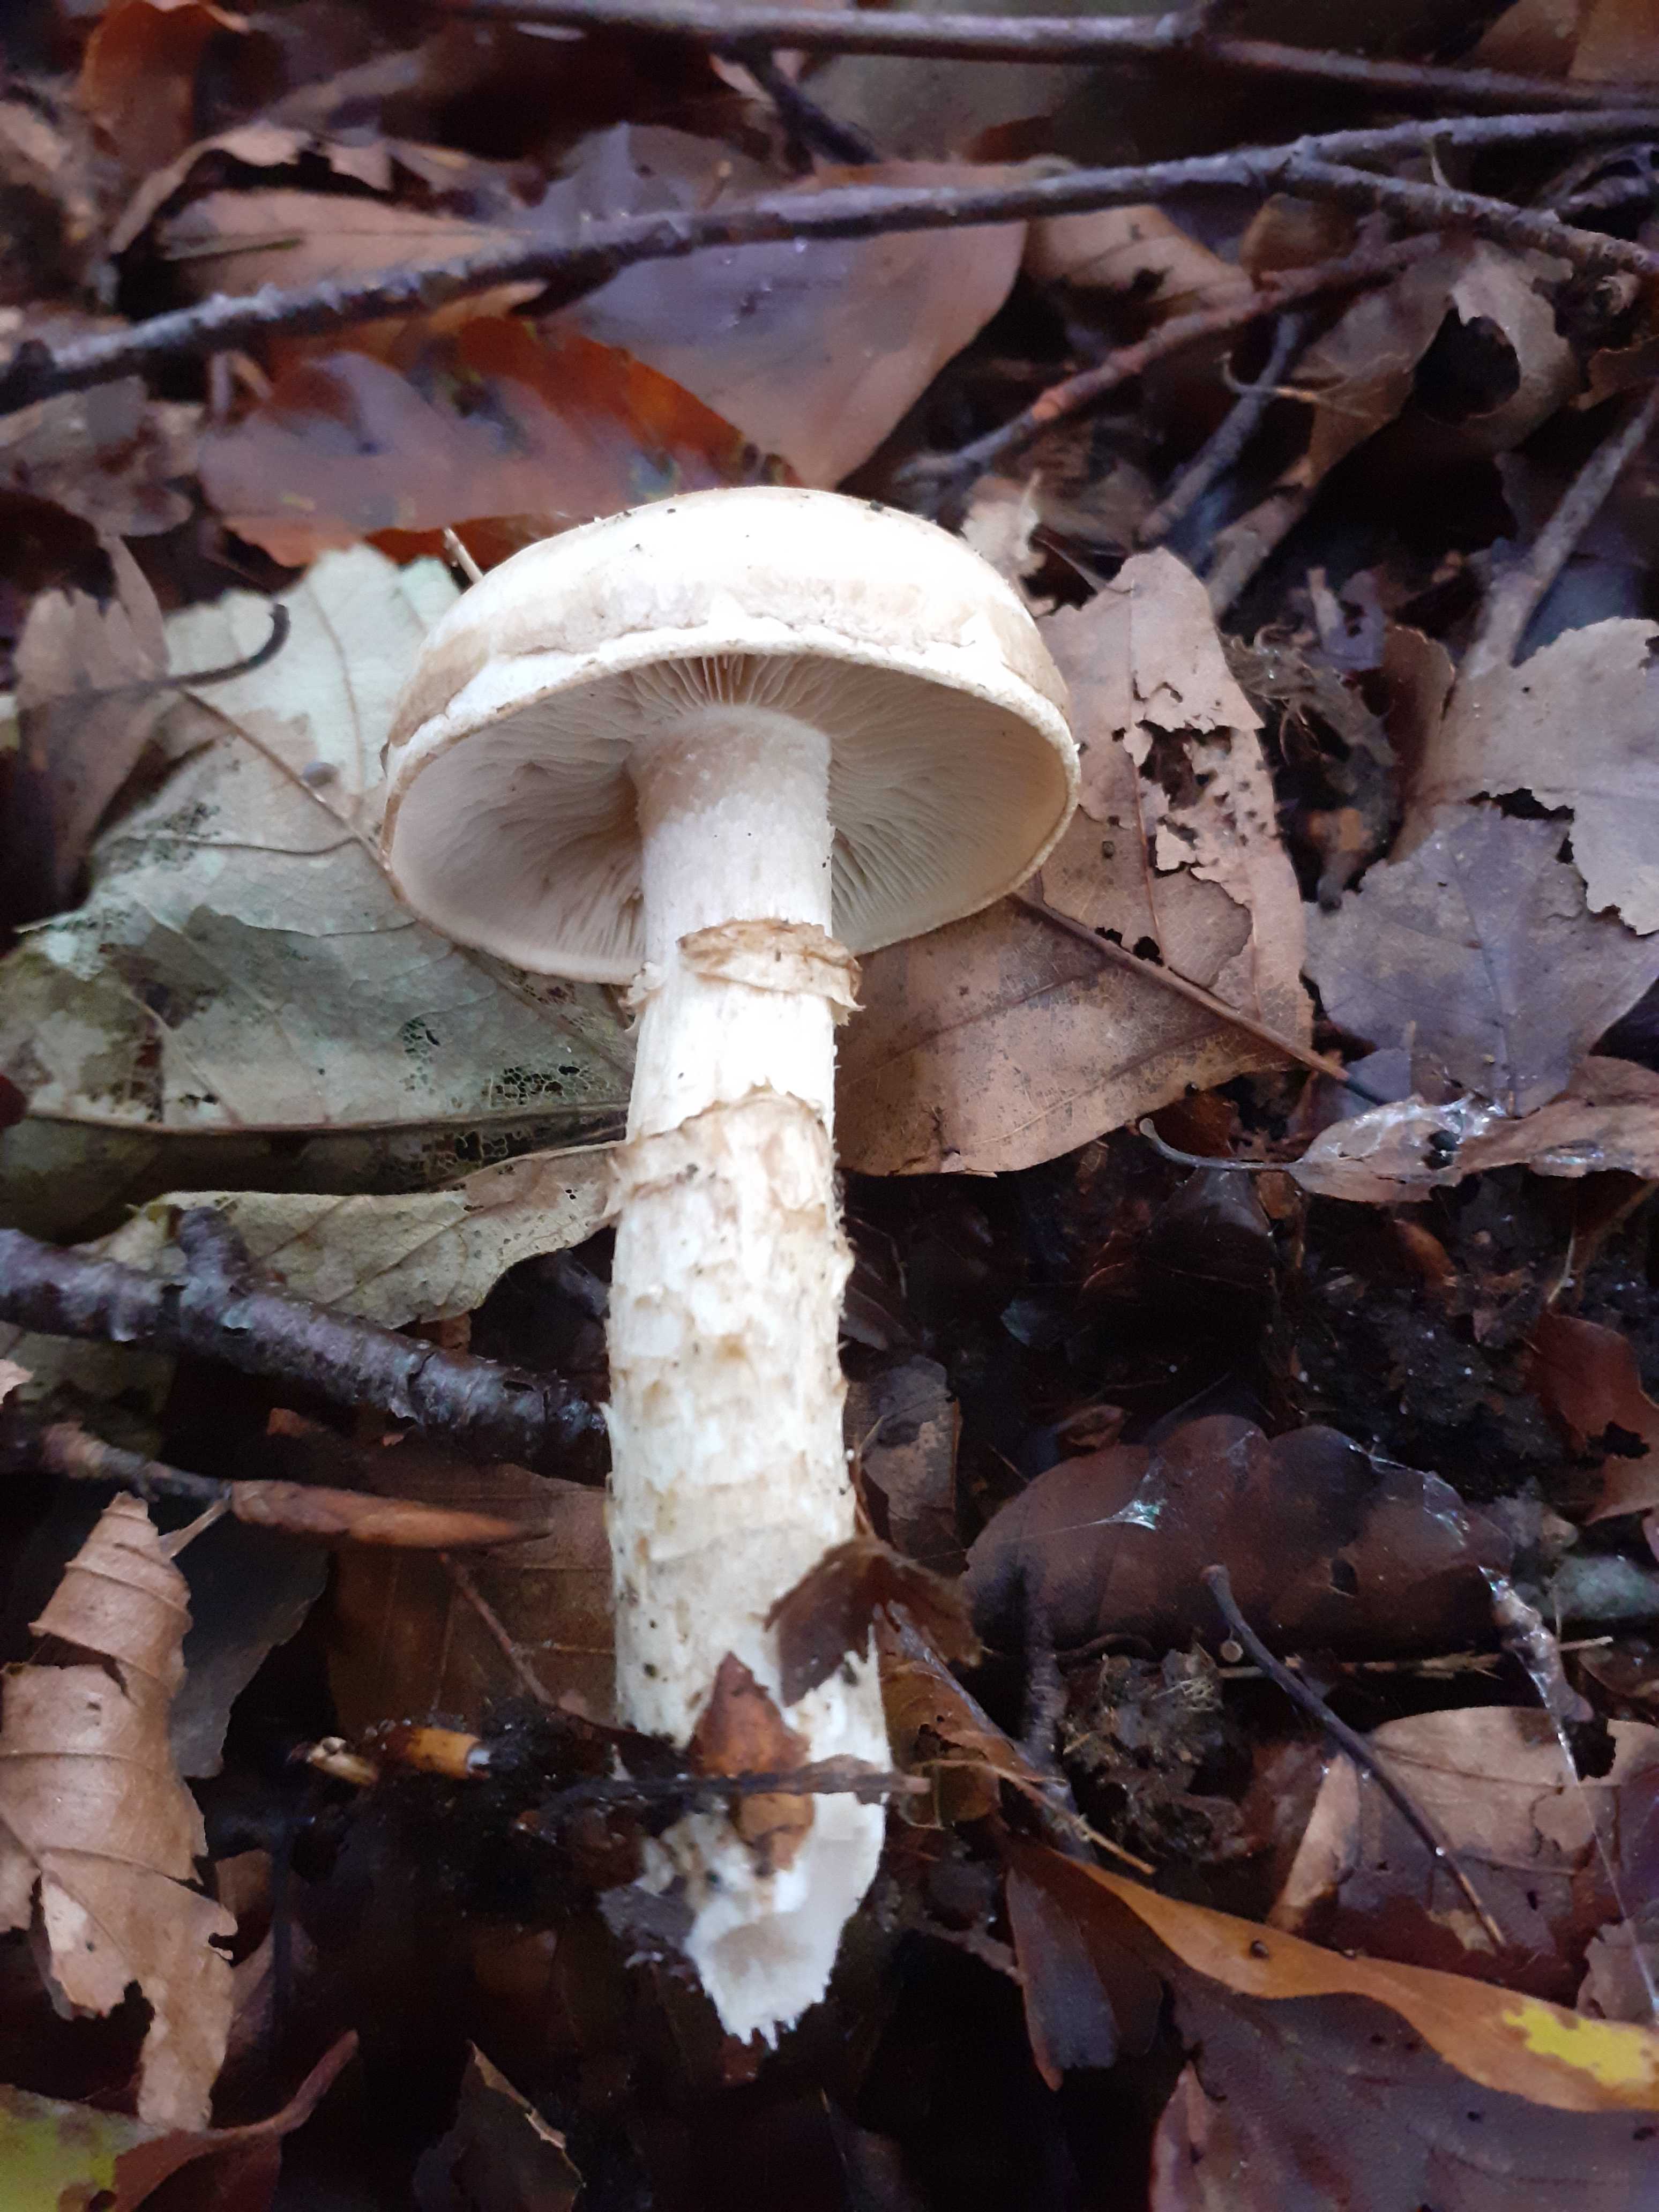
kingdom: Fungi
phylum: Basidiomycota
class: Agaricomycetes
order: Agaricales
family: Hymenogastraceae
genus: Hebeloma
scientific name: Hebeloma radicosum
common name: pælerods-tåreblad
